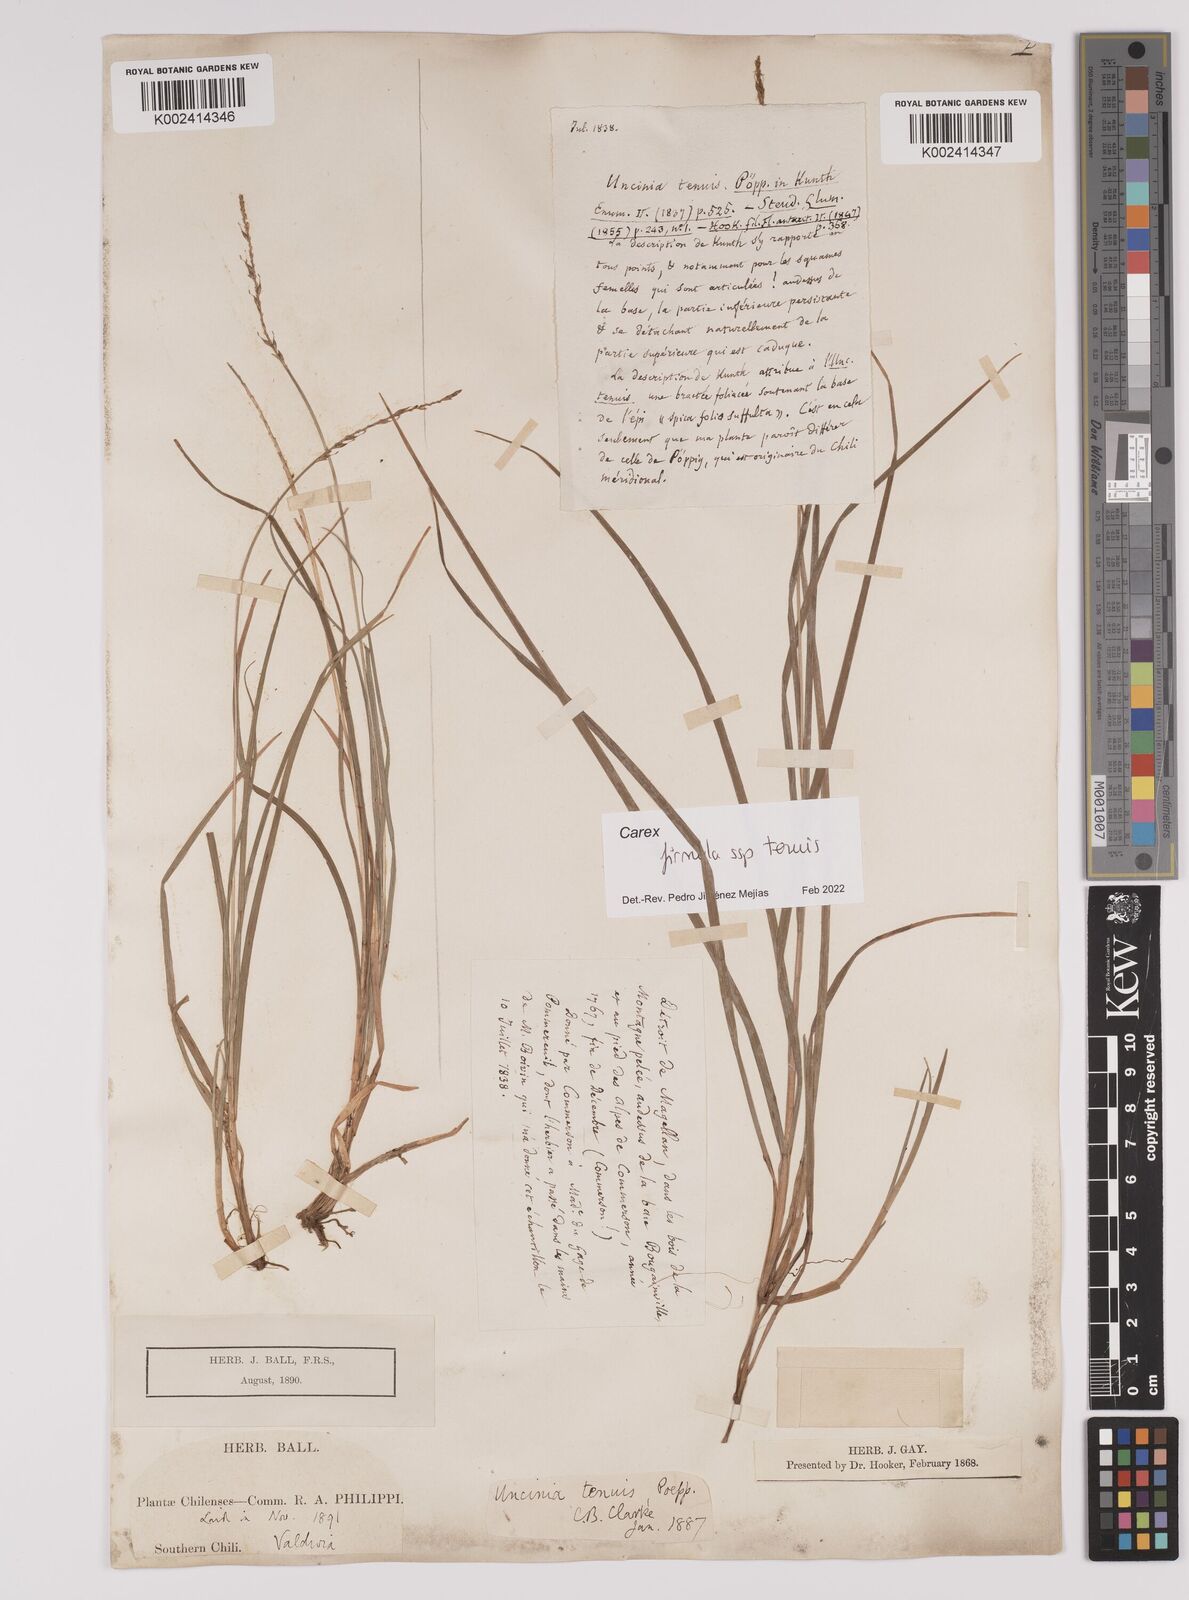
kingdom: Plantae
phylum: Tracheophyta
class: Liliopsida
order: Poales
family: Cyperaceae
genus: Carex
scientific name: Carex firmula
